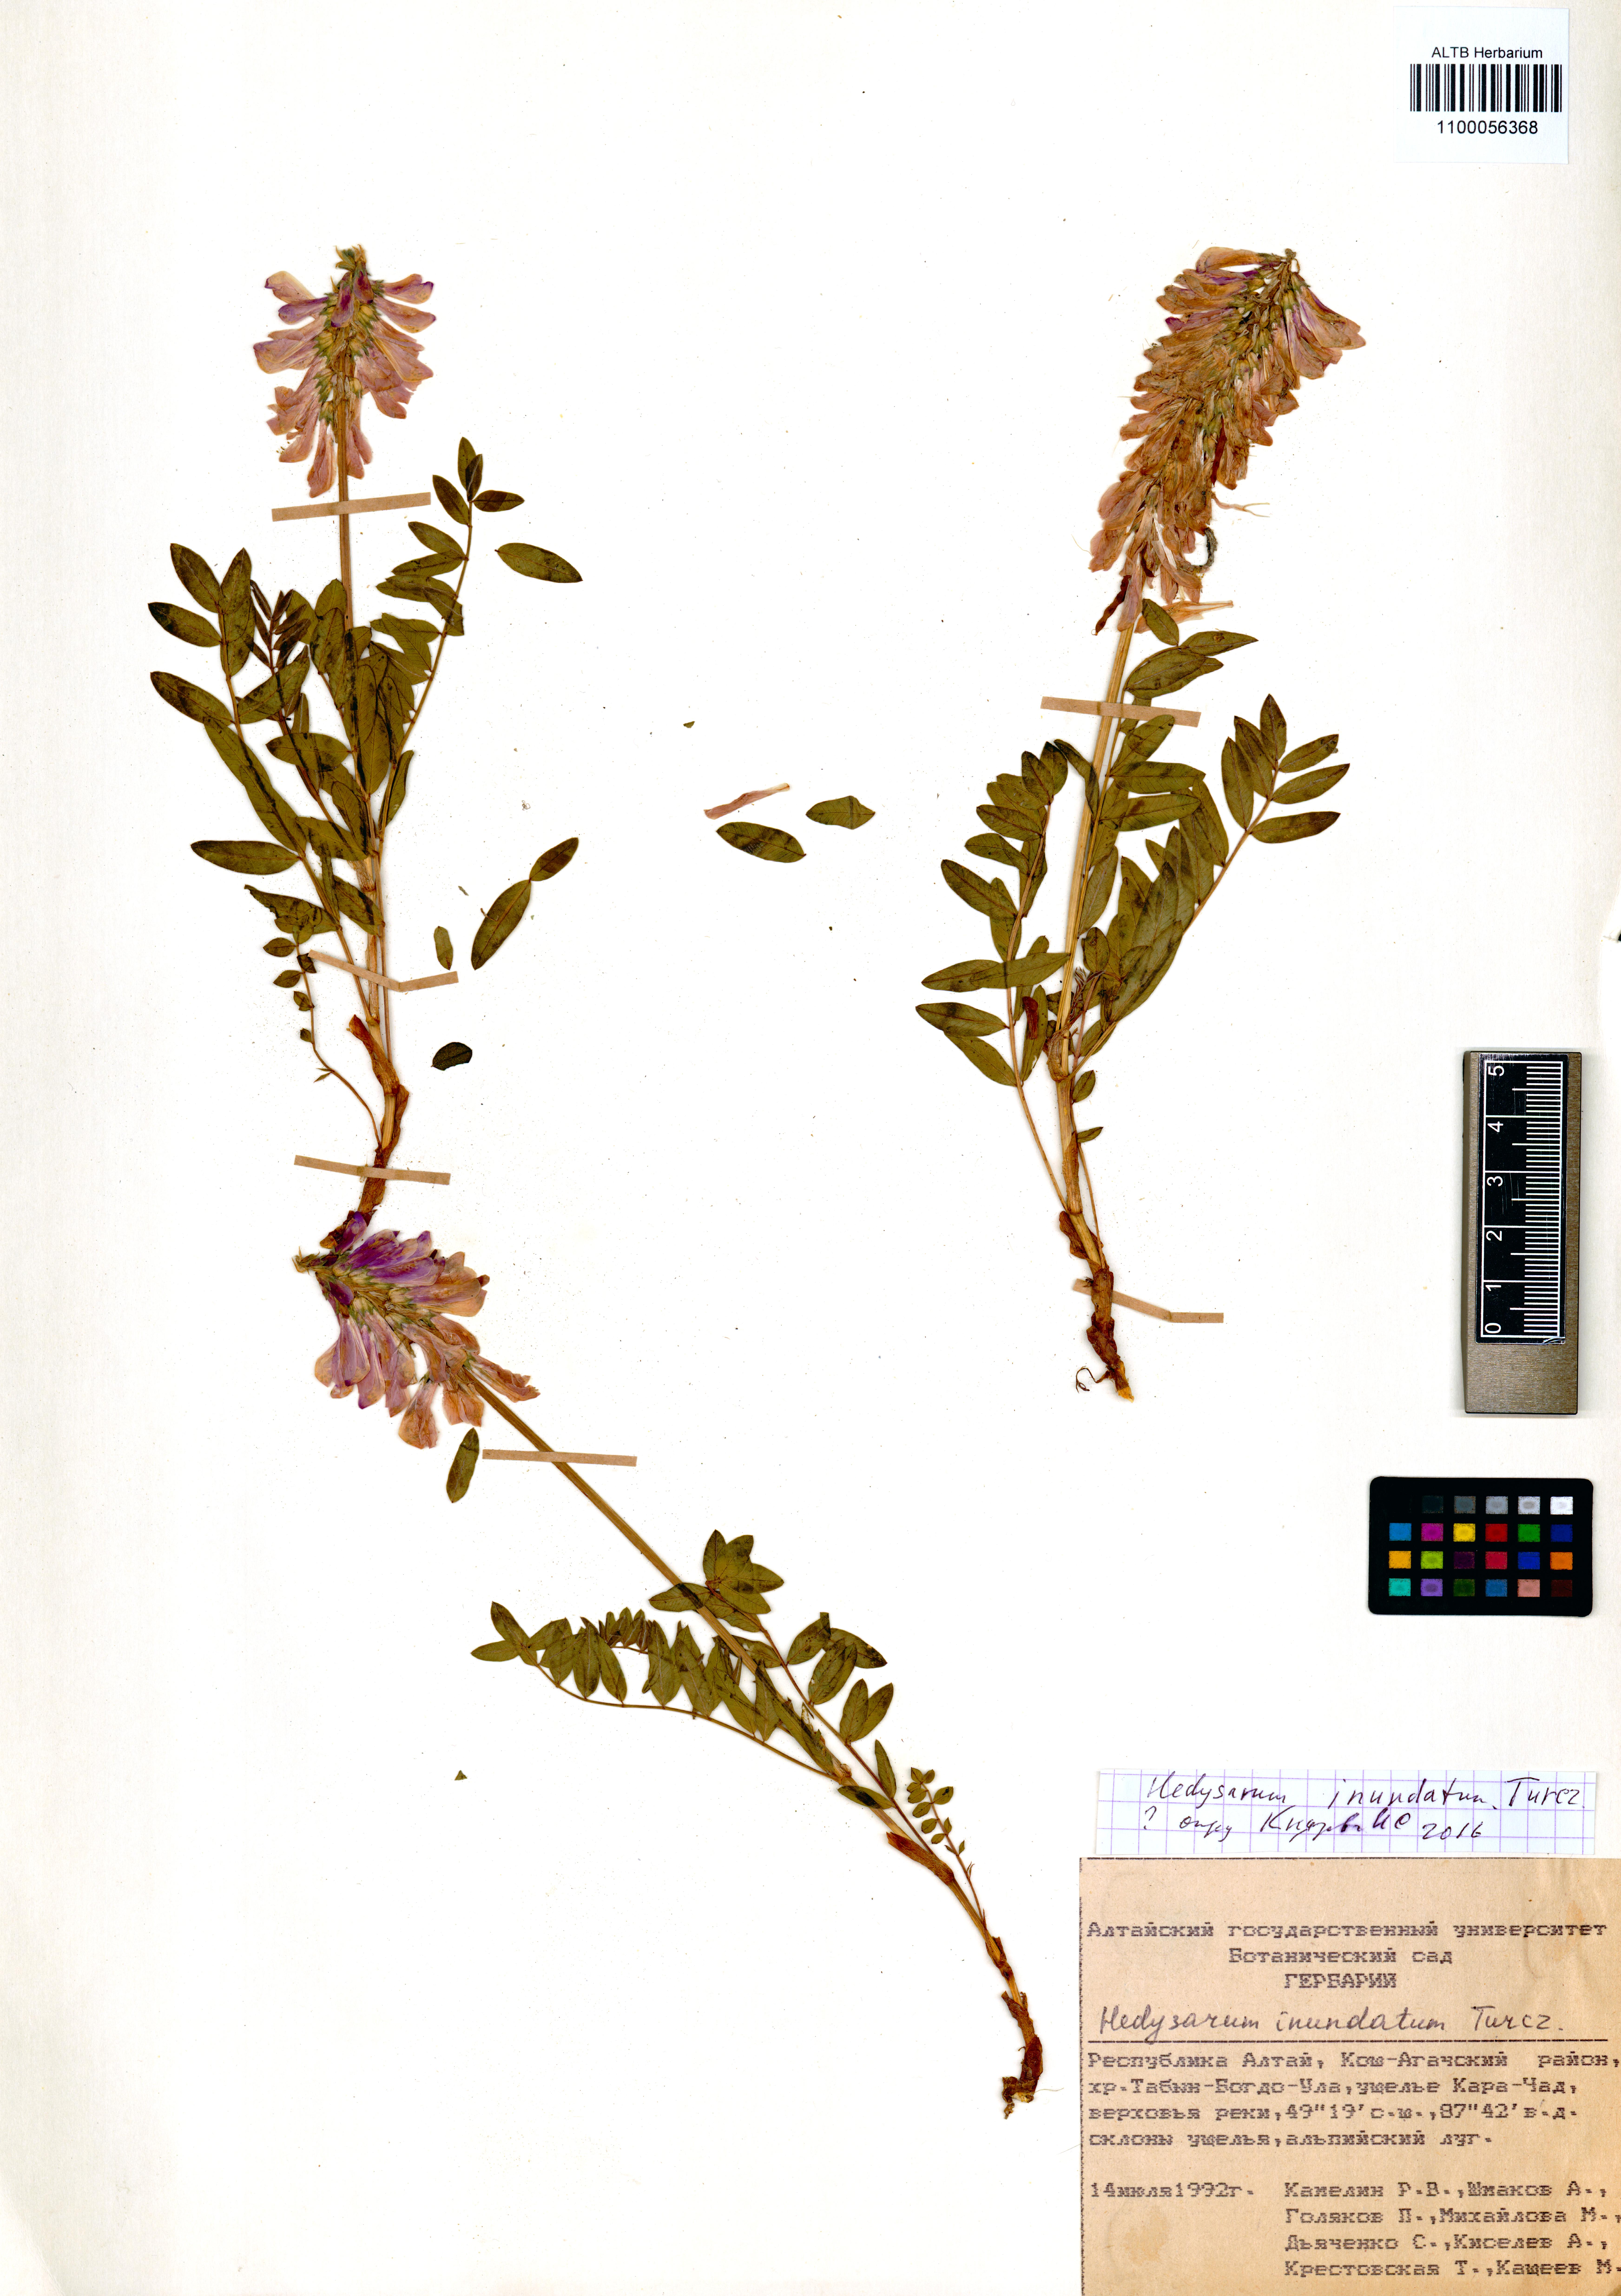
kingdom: Plantae
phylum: Tracheophyta
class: Magnoliopsida
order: Fabales
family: Fabaceae
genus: Hedysarum
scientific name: Hedysarum inundatum
